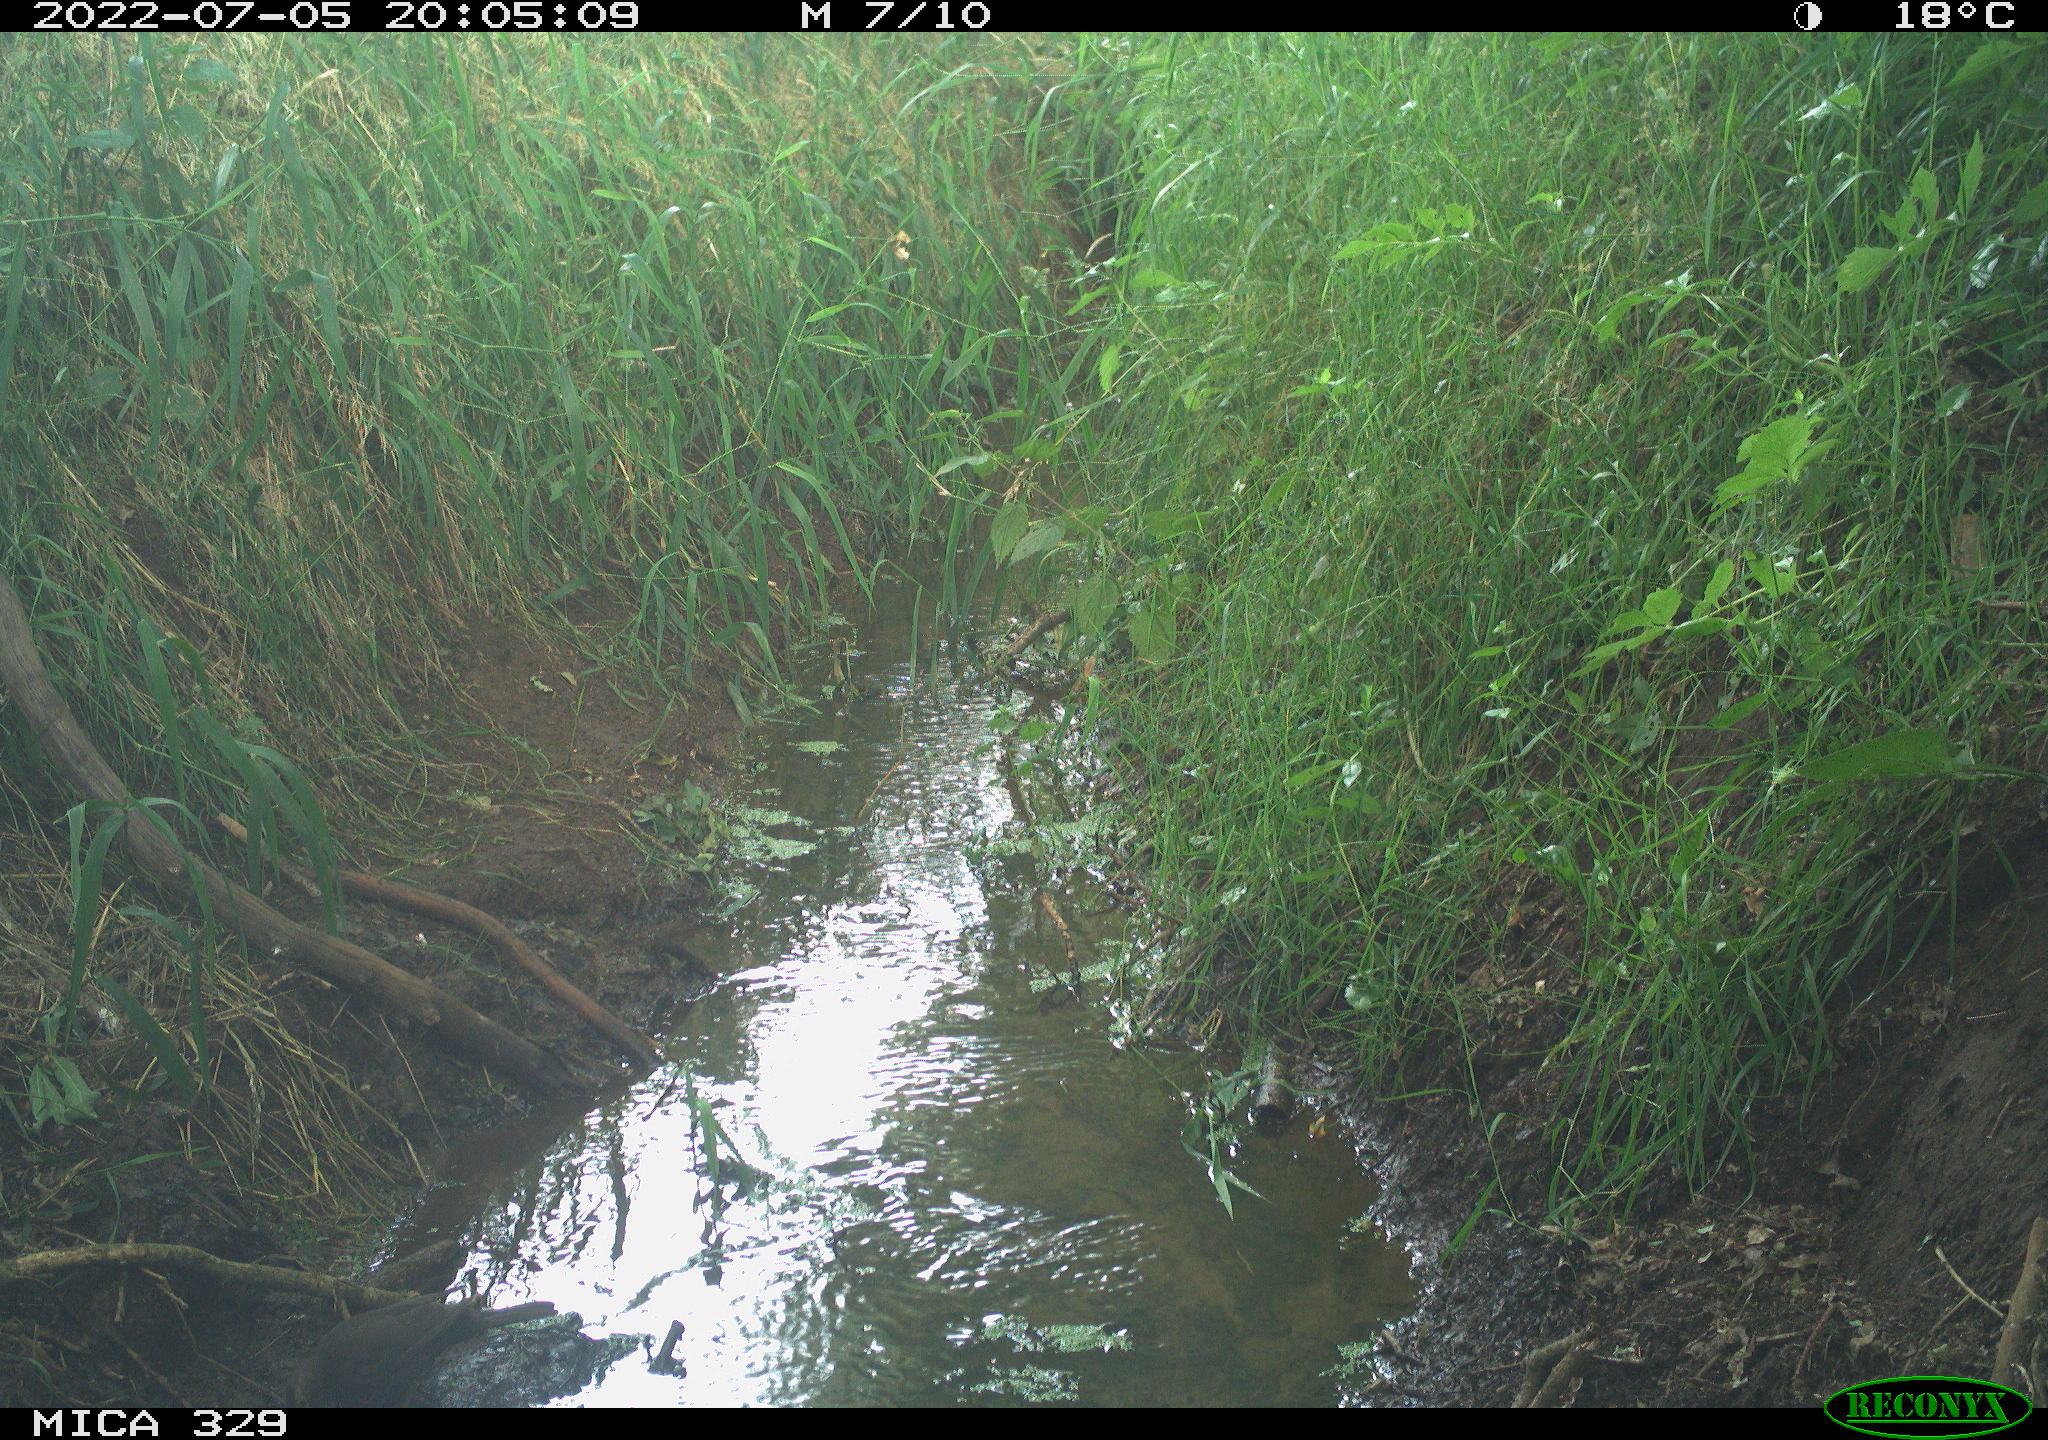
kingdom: Animalia
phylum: Chordata
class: Aves
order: Passeriformes
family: Turdidae
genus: Turdus
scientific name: Turdus merula
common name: Common blackbird
